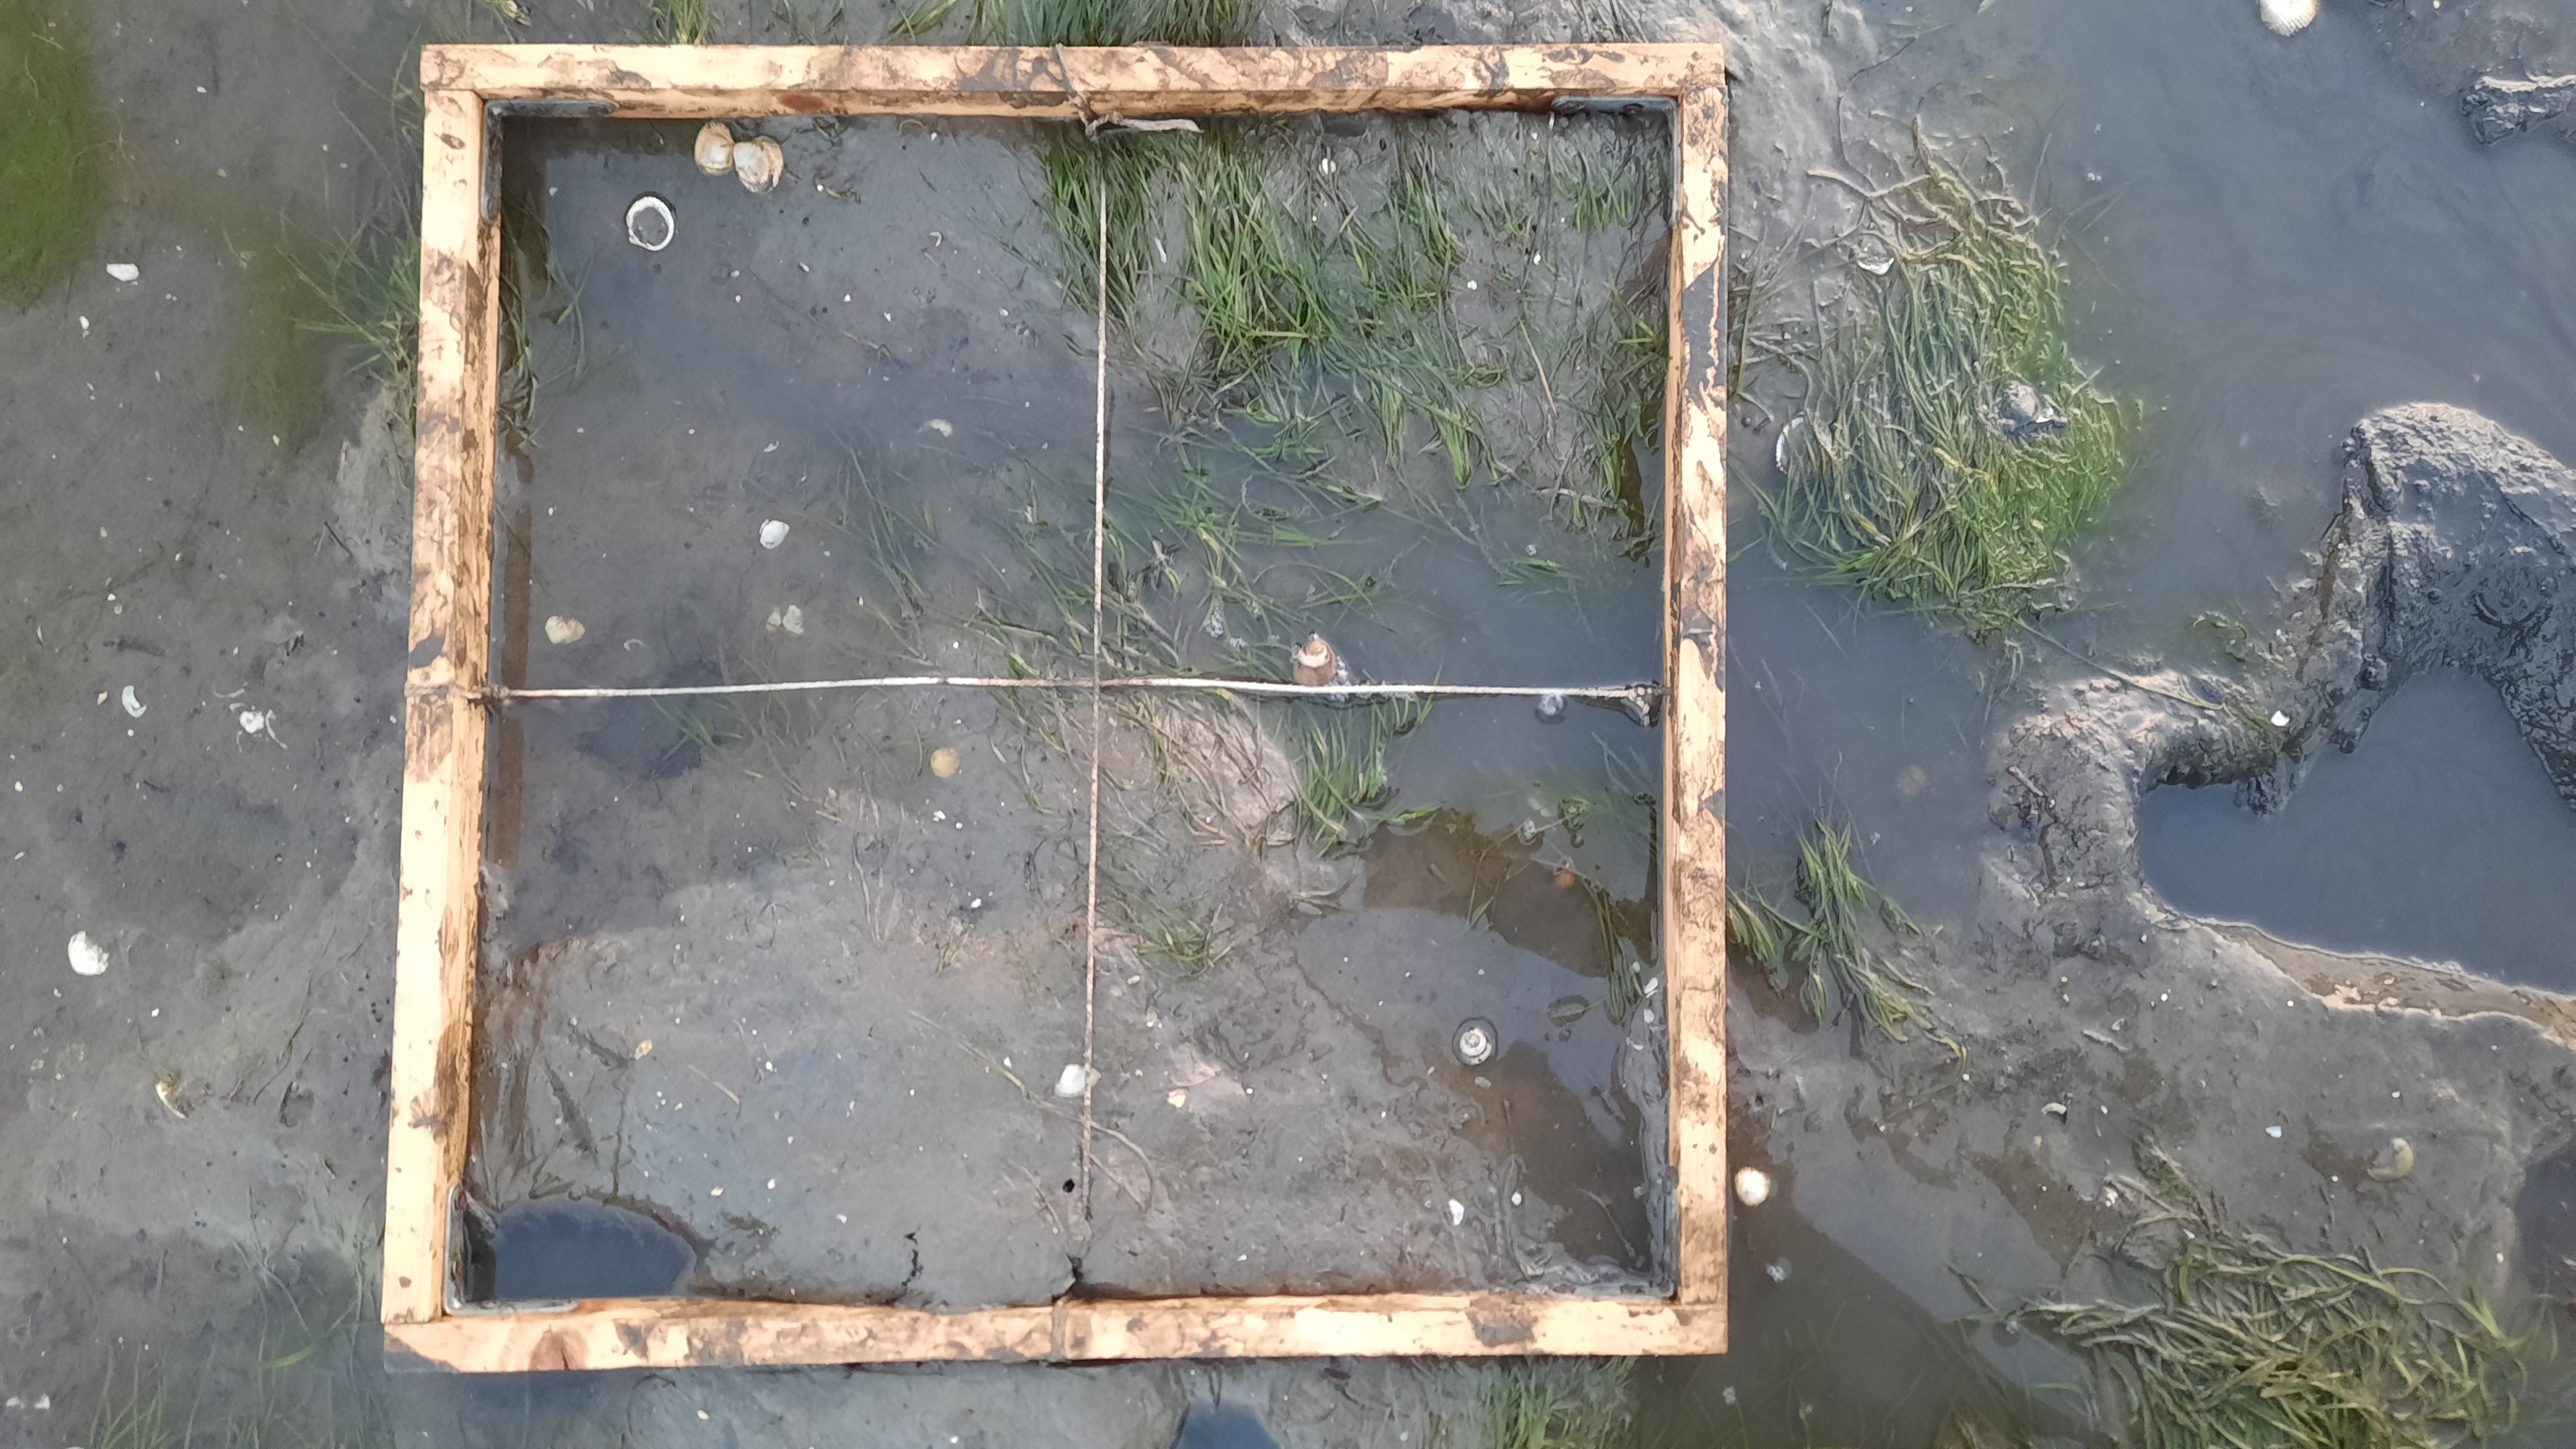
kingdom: Plantae
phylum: Tracheophyta
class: Liliopsida
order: Alismatales
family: Zosteraceae
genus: Zostera
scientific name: Zostera noltii
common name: Dwarf eelgrass
